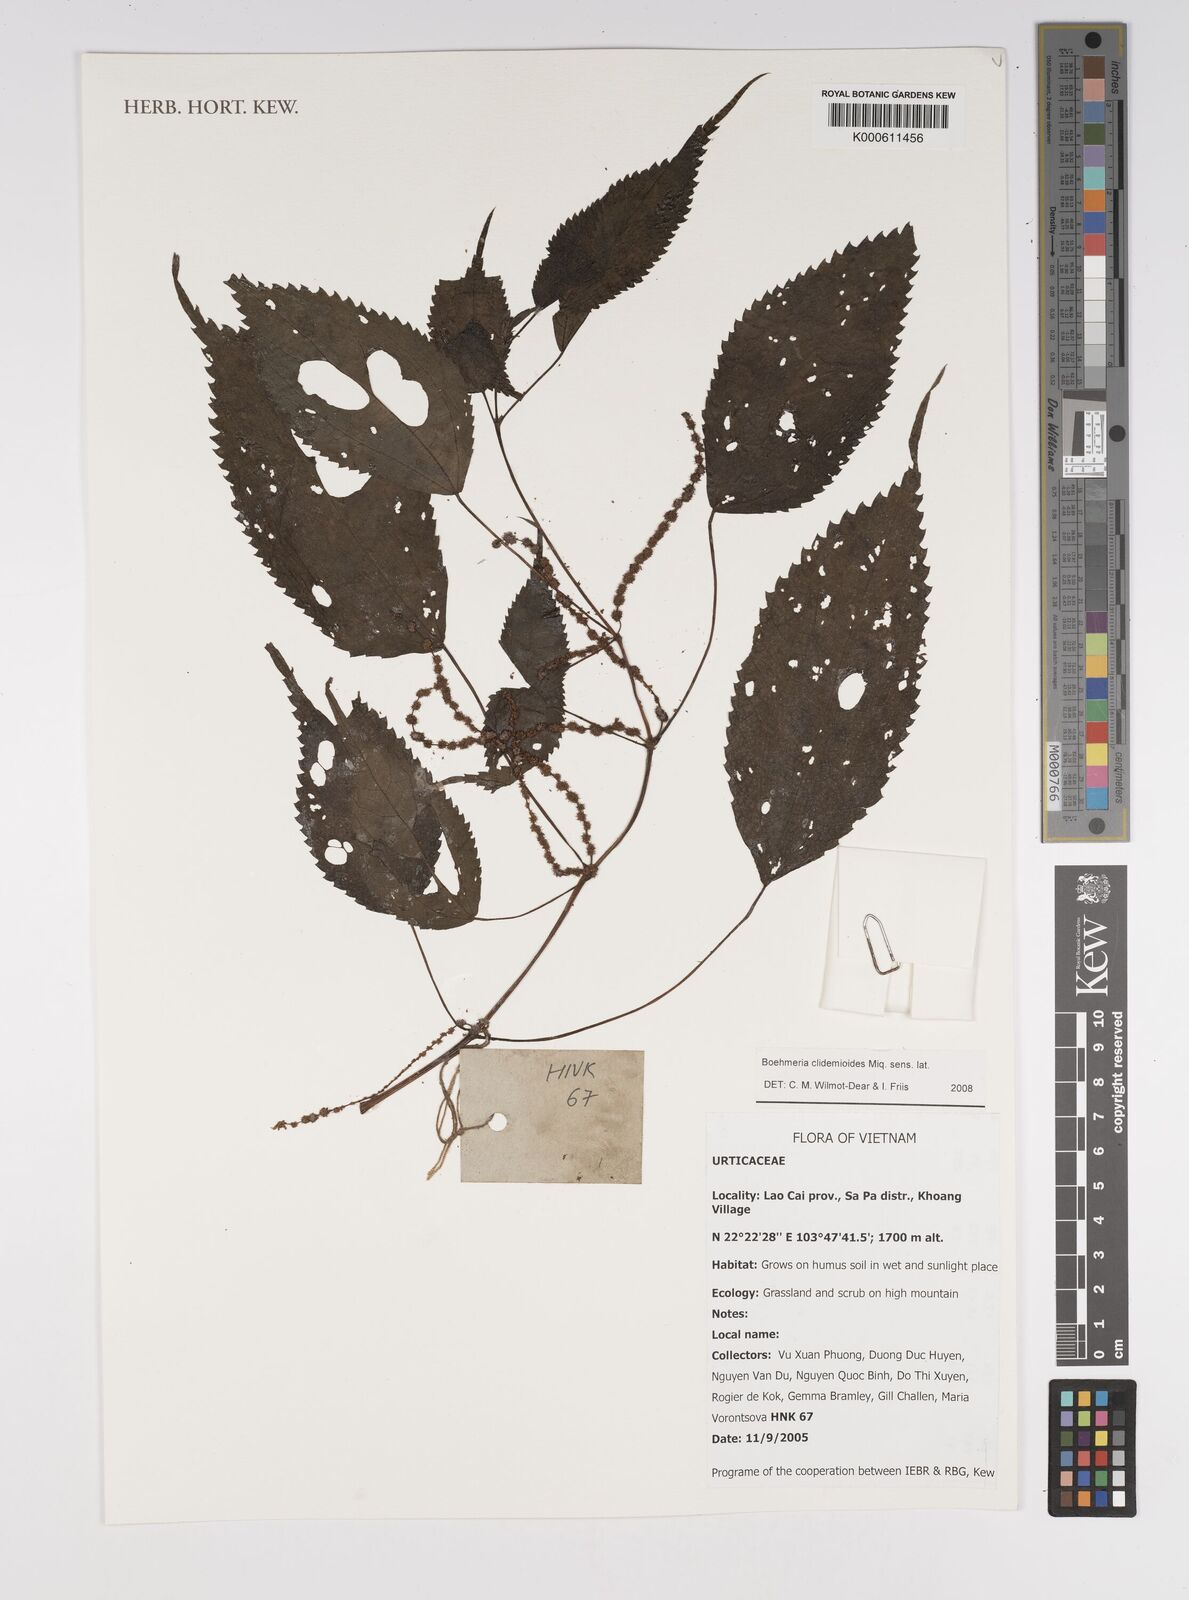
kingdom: Plantae
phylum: Tracheophyta
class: Magnoliopsida
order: Rosales
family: Urticaceae
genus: Boehmeria
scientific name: Boehmeria clidemioides
